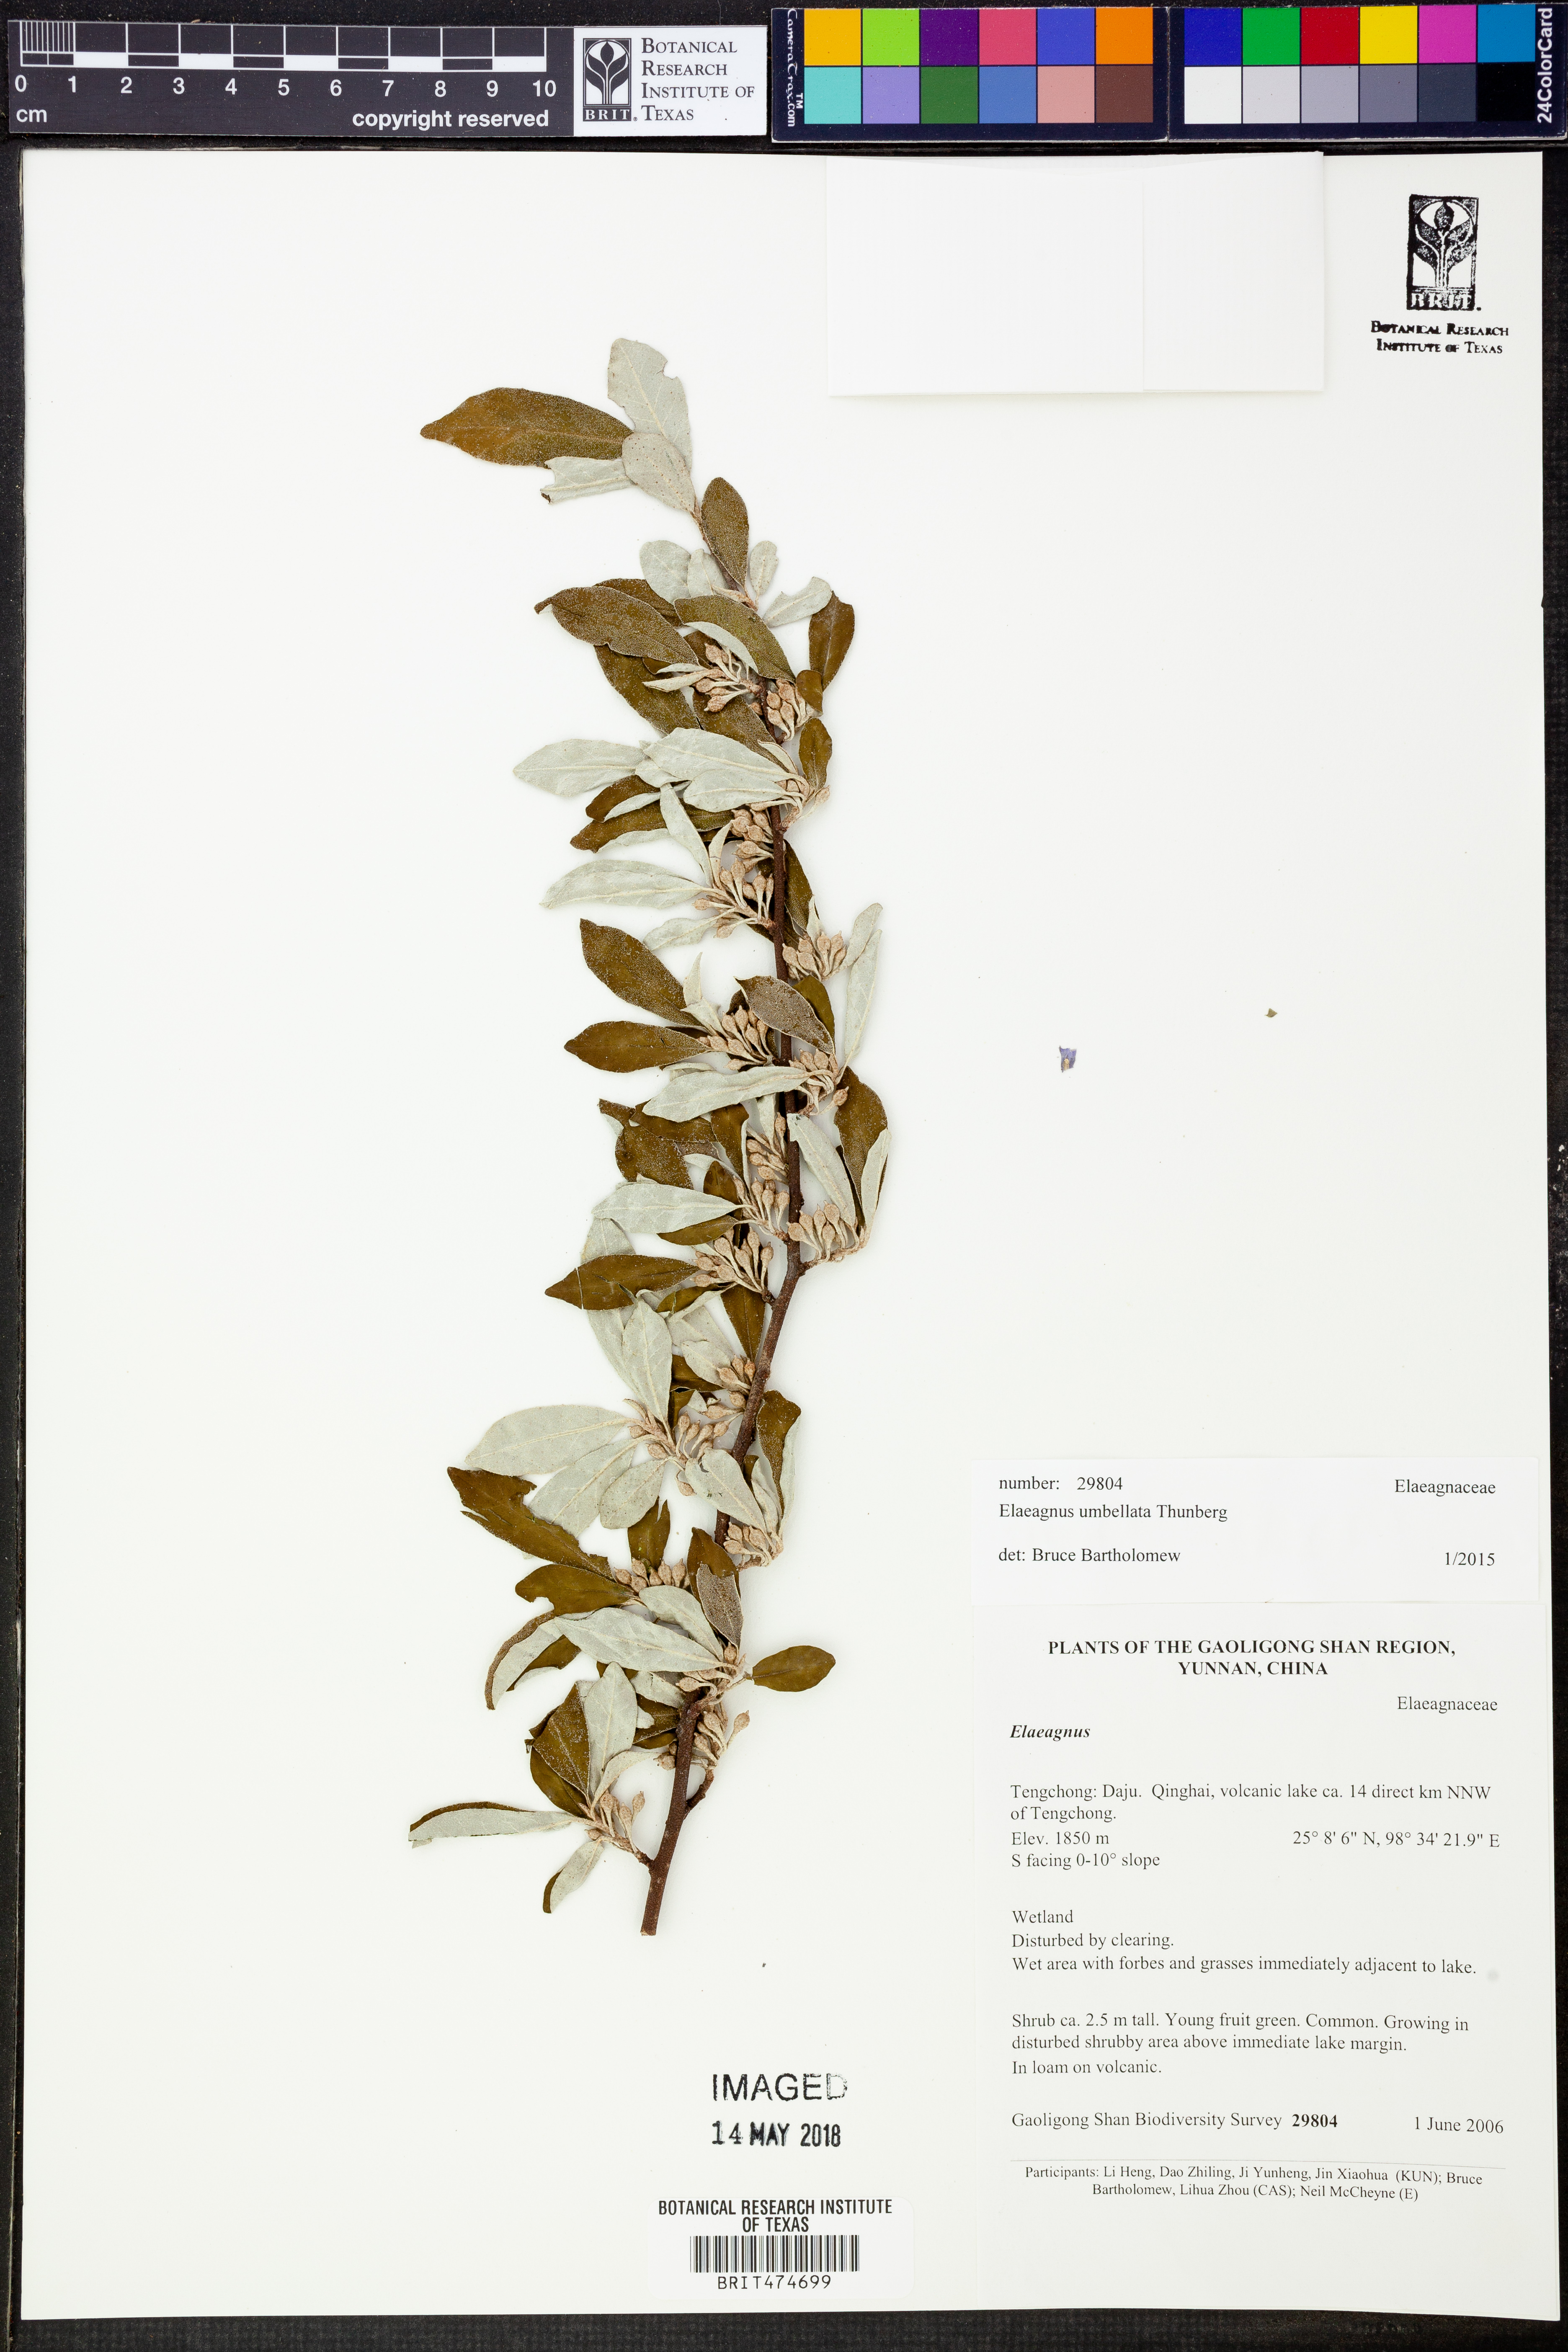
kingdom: Plantae
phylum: Tracheophyta
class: Magnoliopsida
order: Rosales
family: Elaeagnaceae
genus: Elaeagnus
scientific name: Elaeagnus umbellata
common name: Autumn olive
